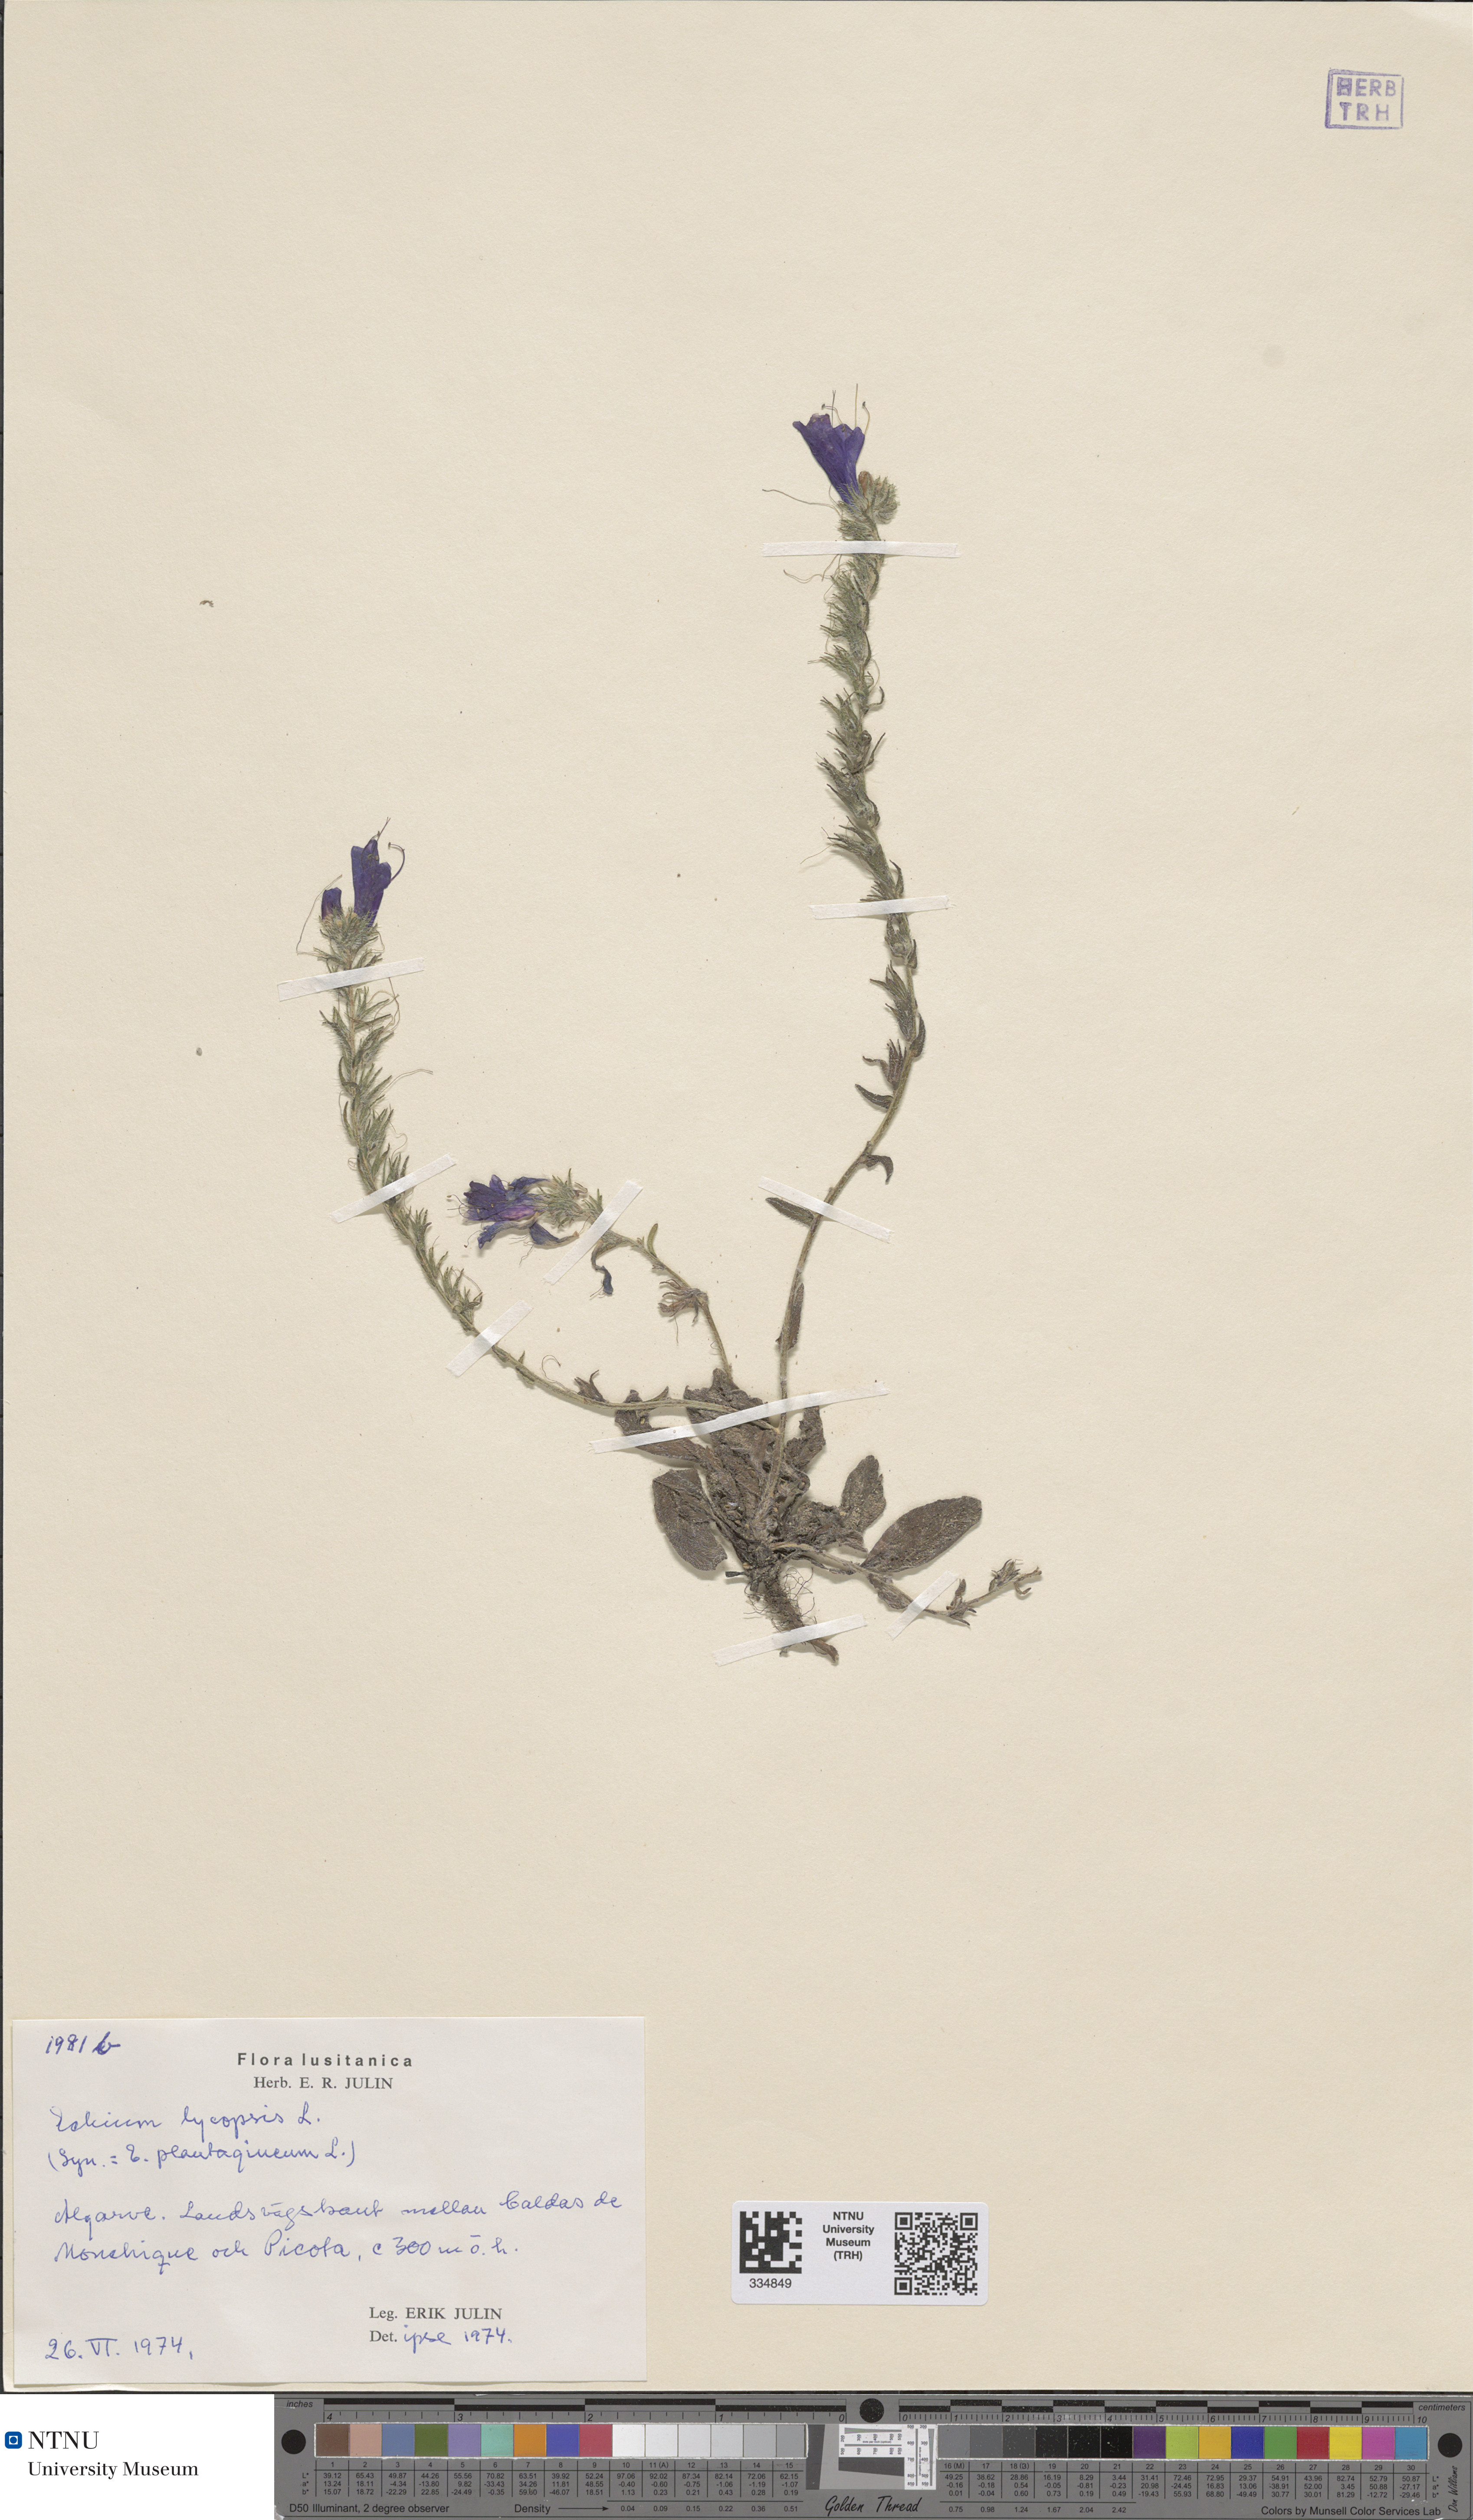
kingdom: Plantae
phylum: Tracheophyta
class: Magnoliopsida
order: Boraginales
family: Boraginaceae
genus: Echium
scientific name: Echium plantagineum
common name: Purple viper's-bugloss
